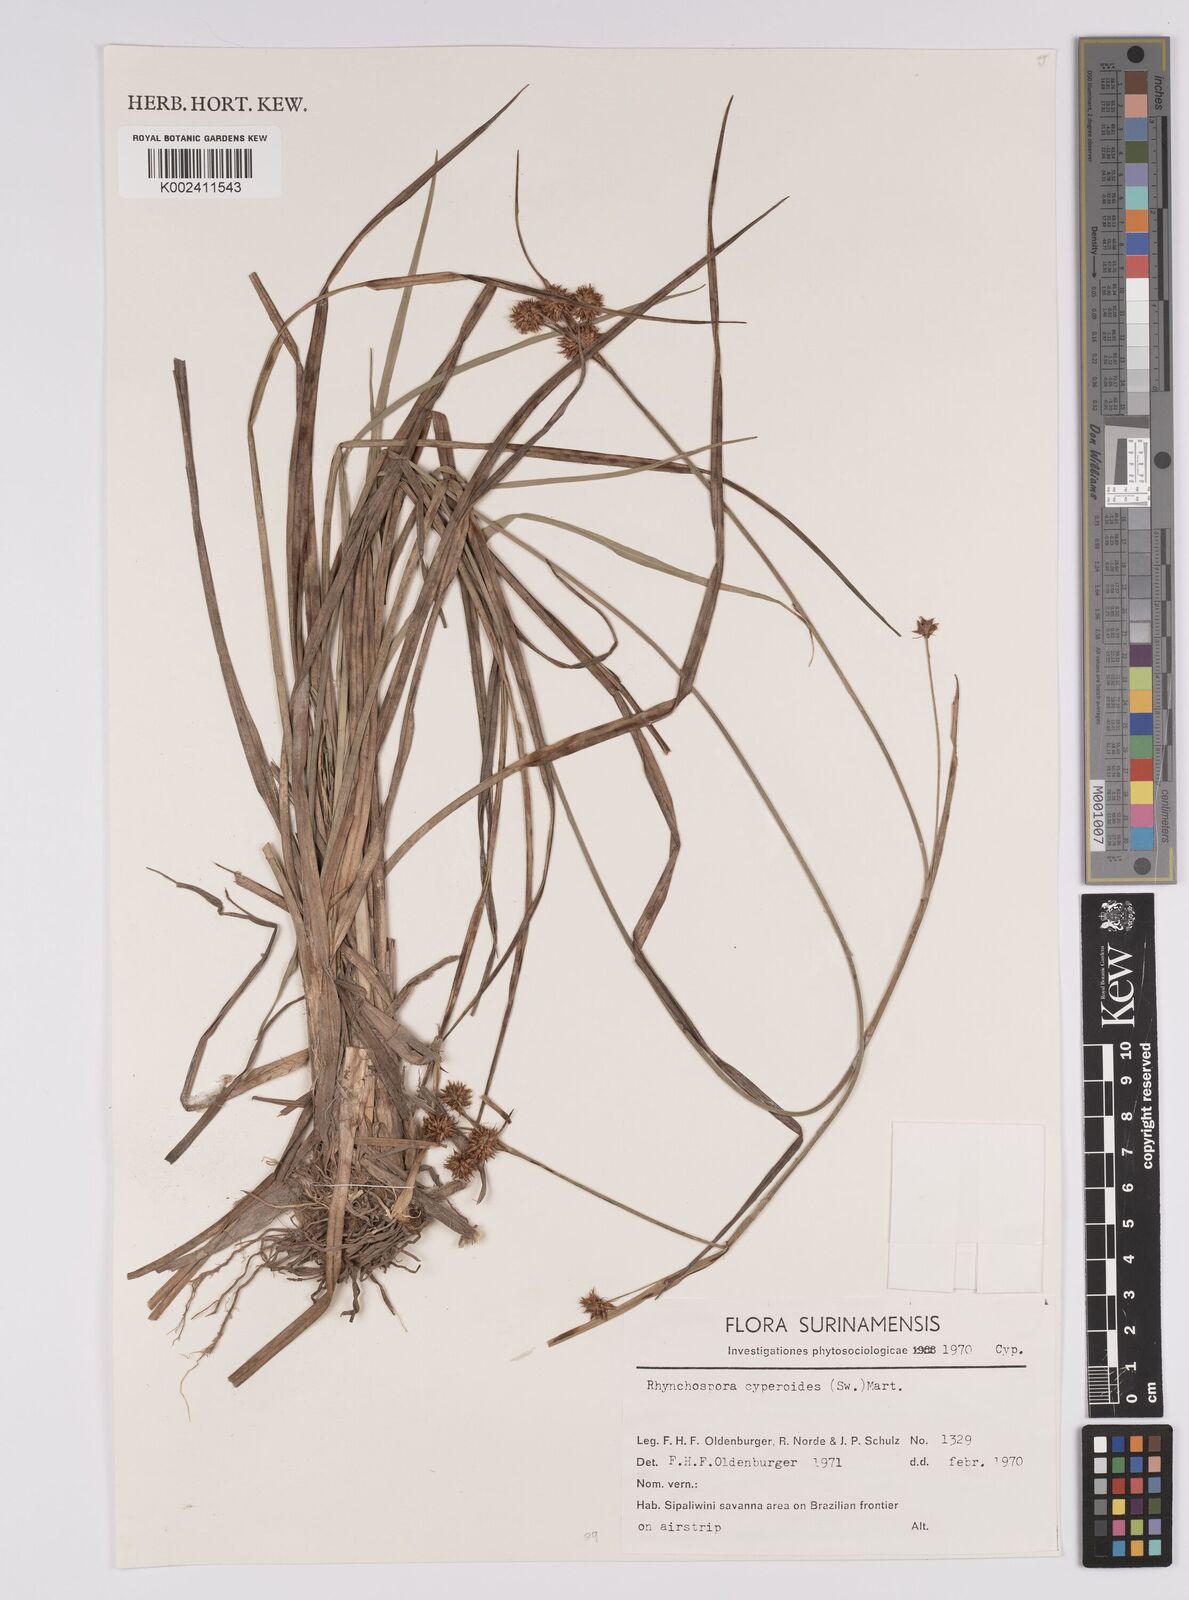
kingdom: Plantae
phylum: Tracheophyta
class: Liliopsida
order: Poales
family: Cyperaceae
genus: Rhynchospora
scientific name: Rhynchospora holoschoenoides
